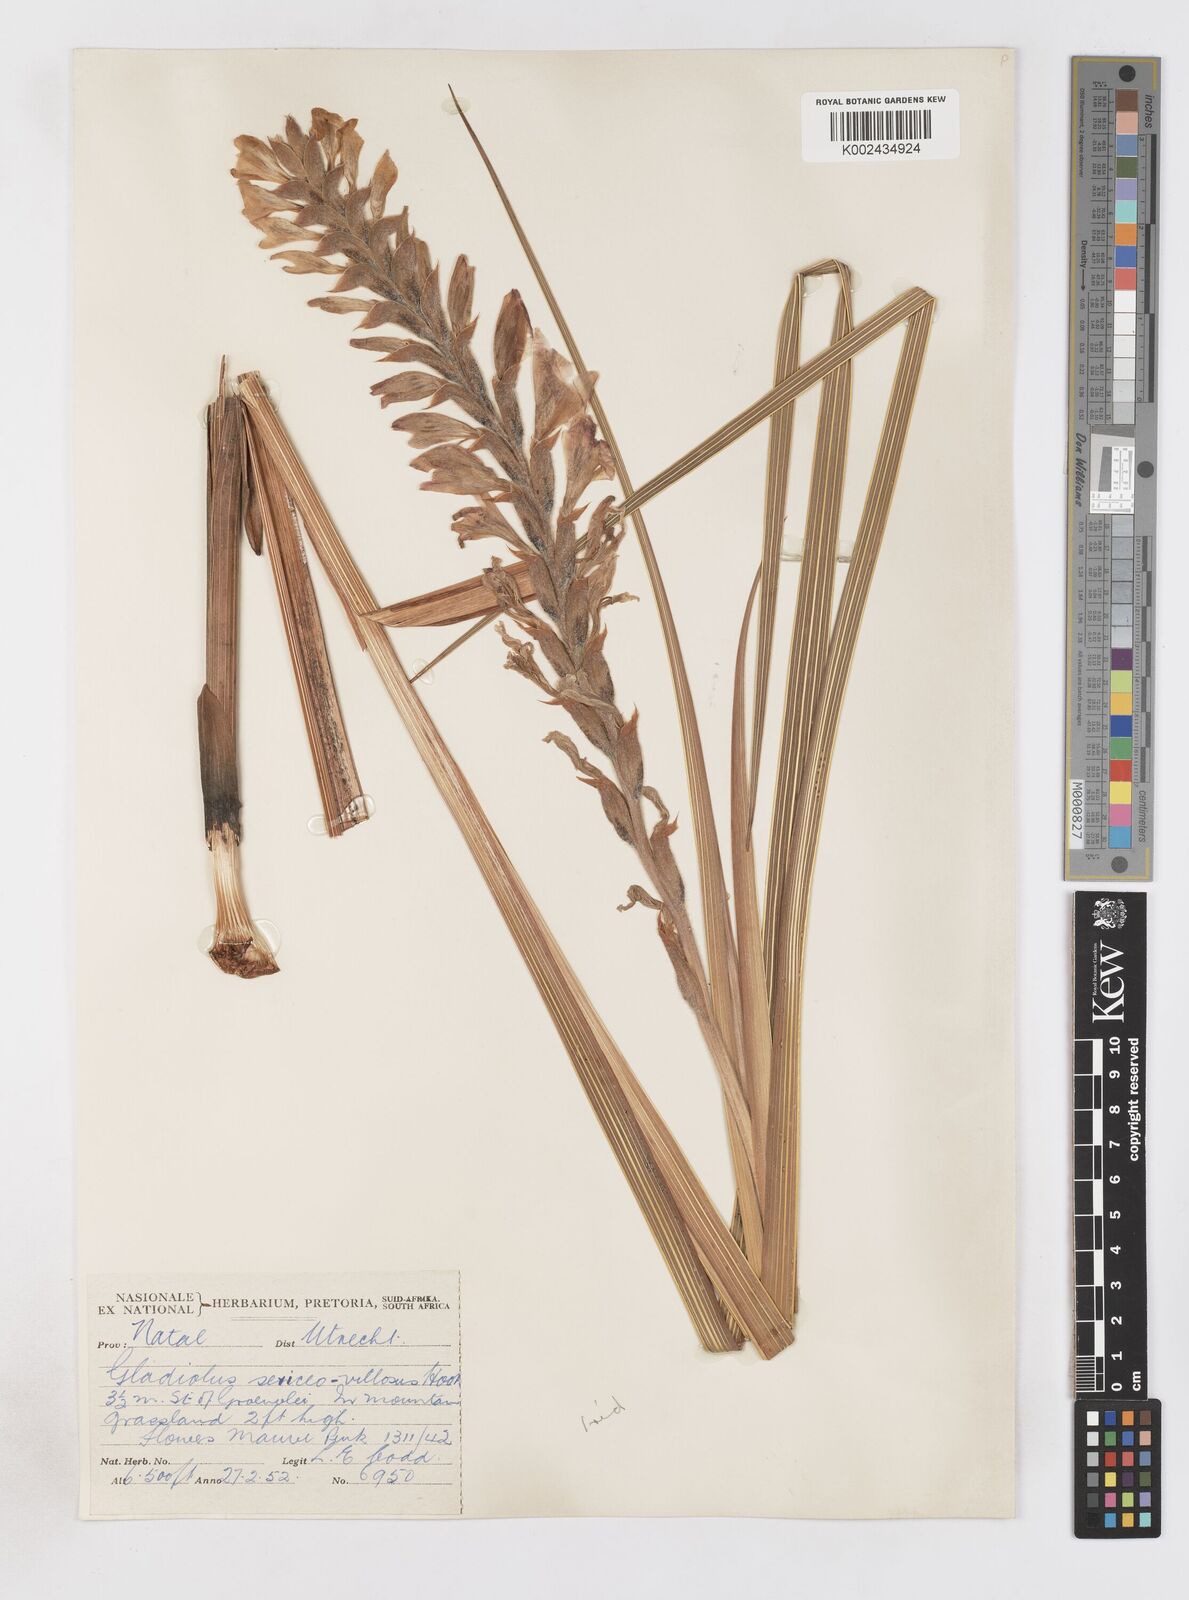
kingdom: Plantae
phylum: Tracheophyta
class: Liliopsida
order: Asparagales
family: Iridaceae
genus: Gladiolus
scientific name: Gladiolus sericeovillosus
